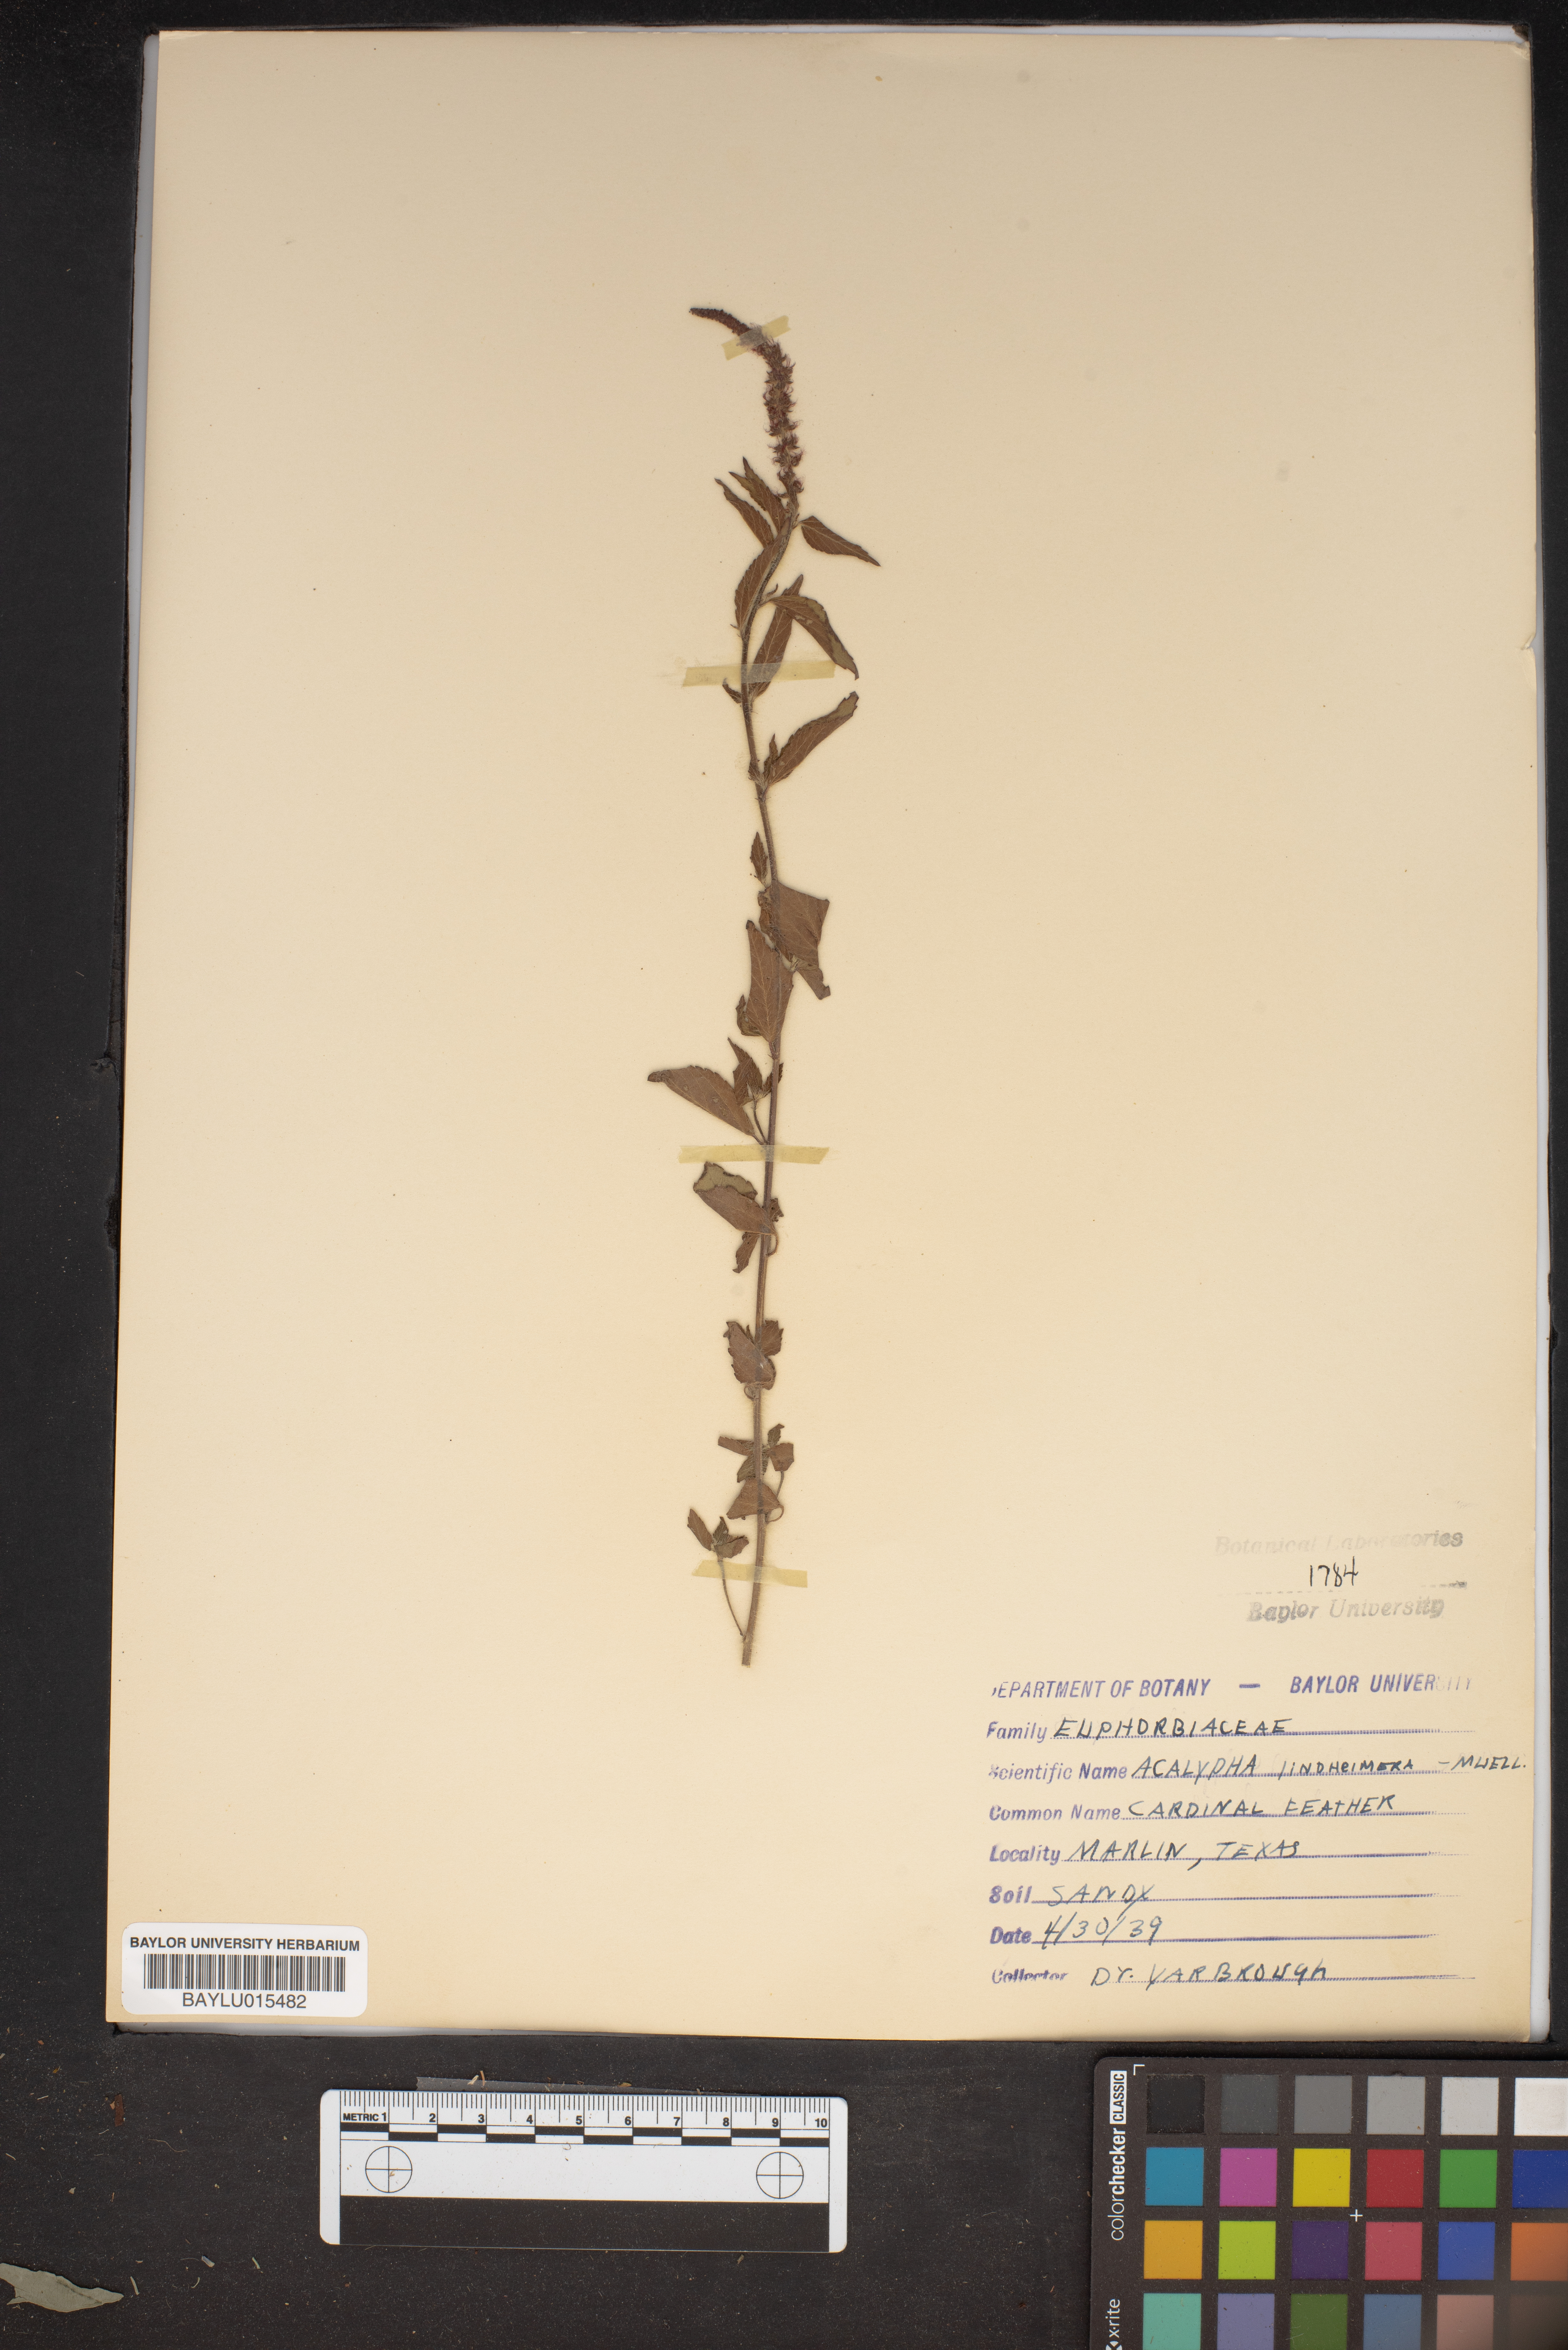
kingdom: Plantae
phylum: Tracheophyta
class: Magnoliopsida
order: Malpighiales
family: Euphorbiaceae
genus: Acalypha
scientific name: Acalypha phleoides
